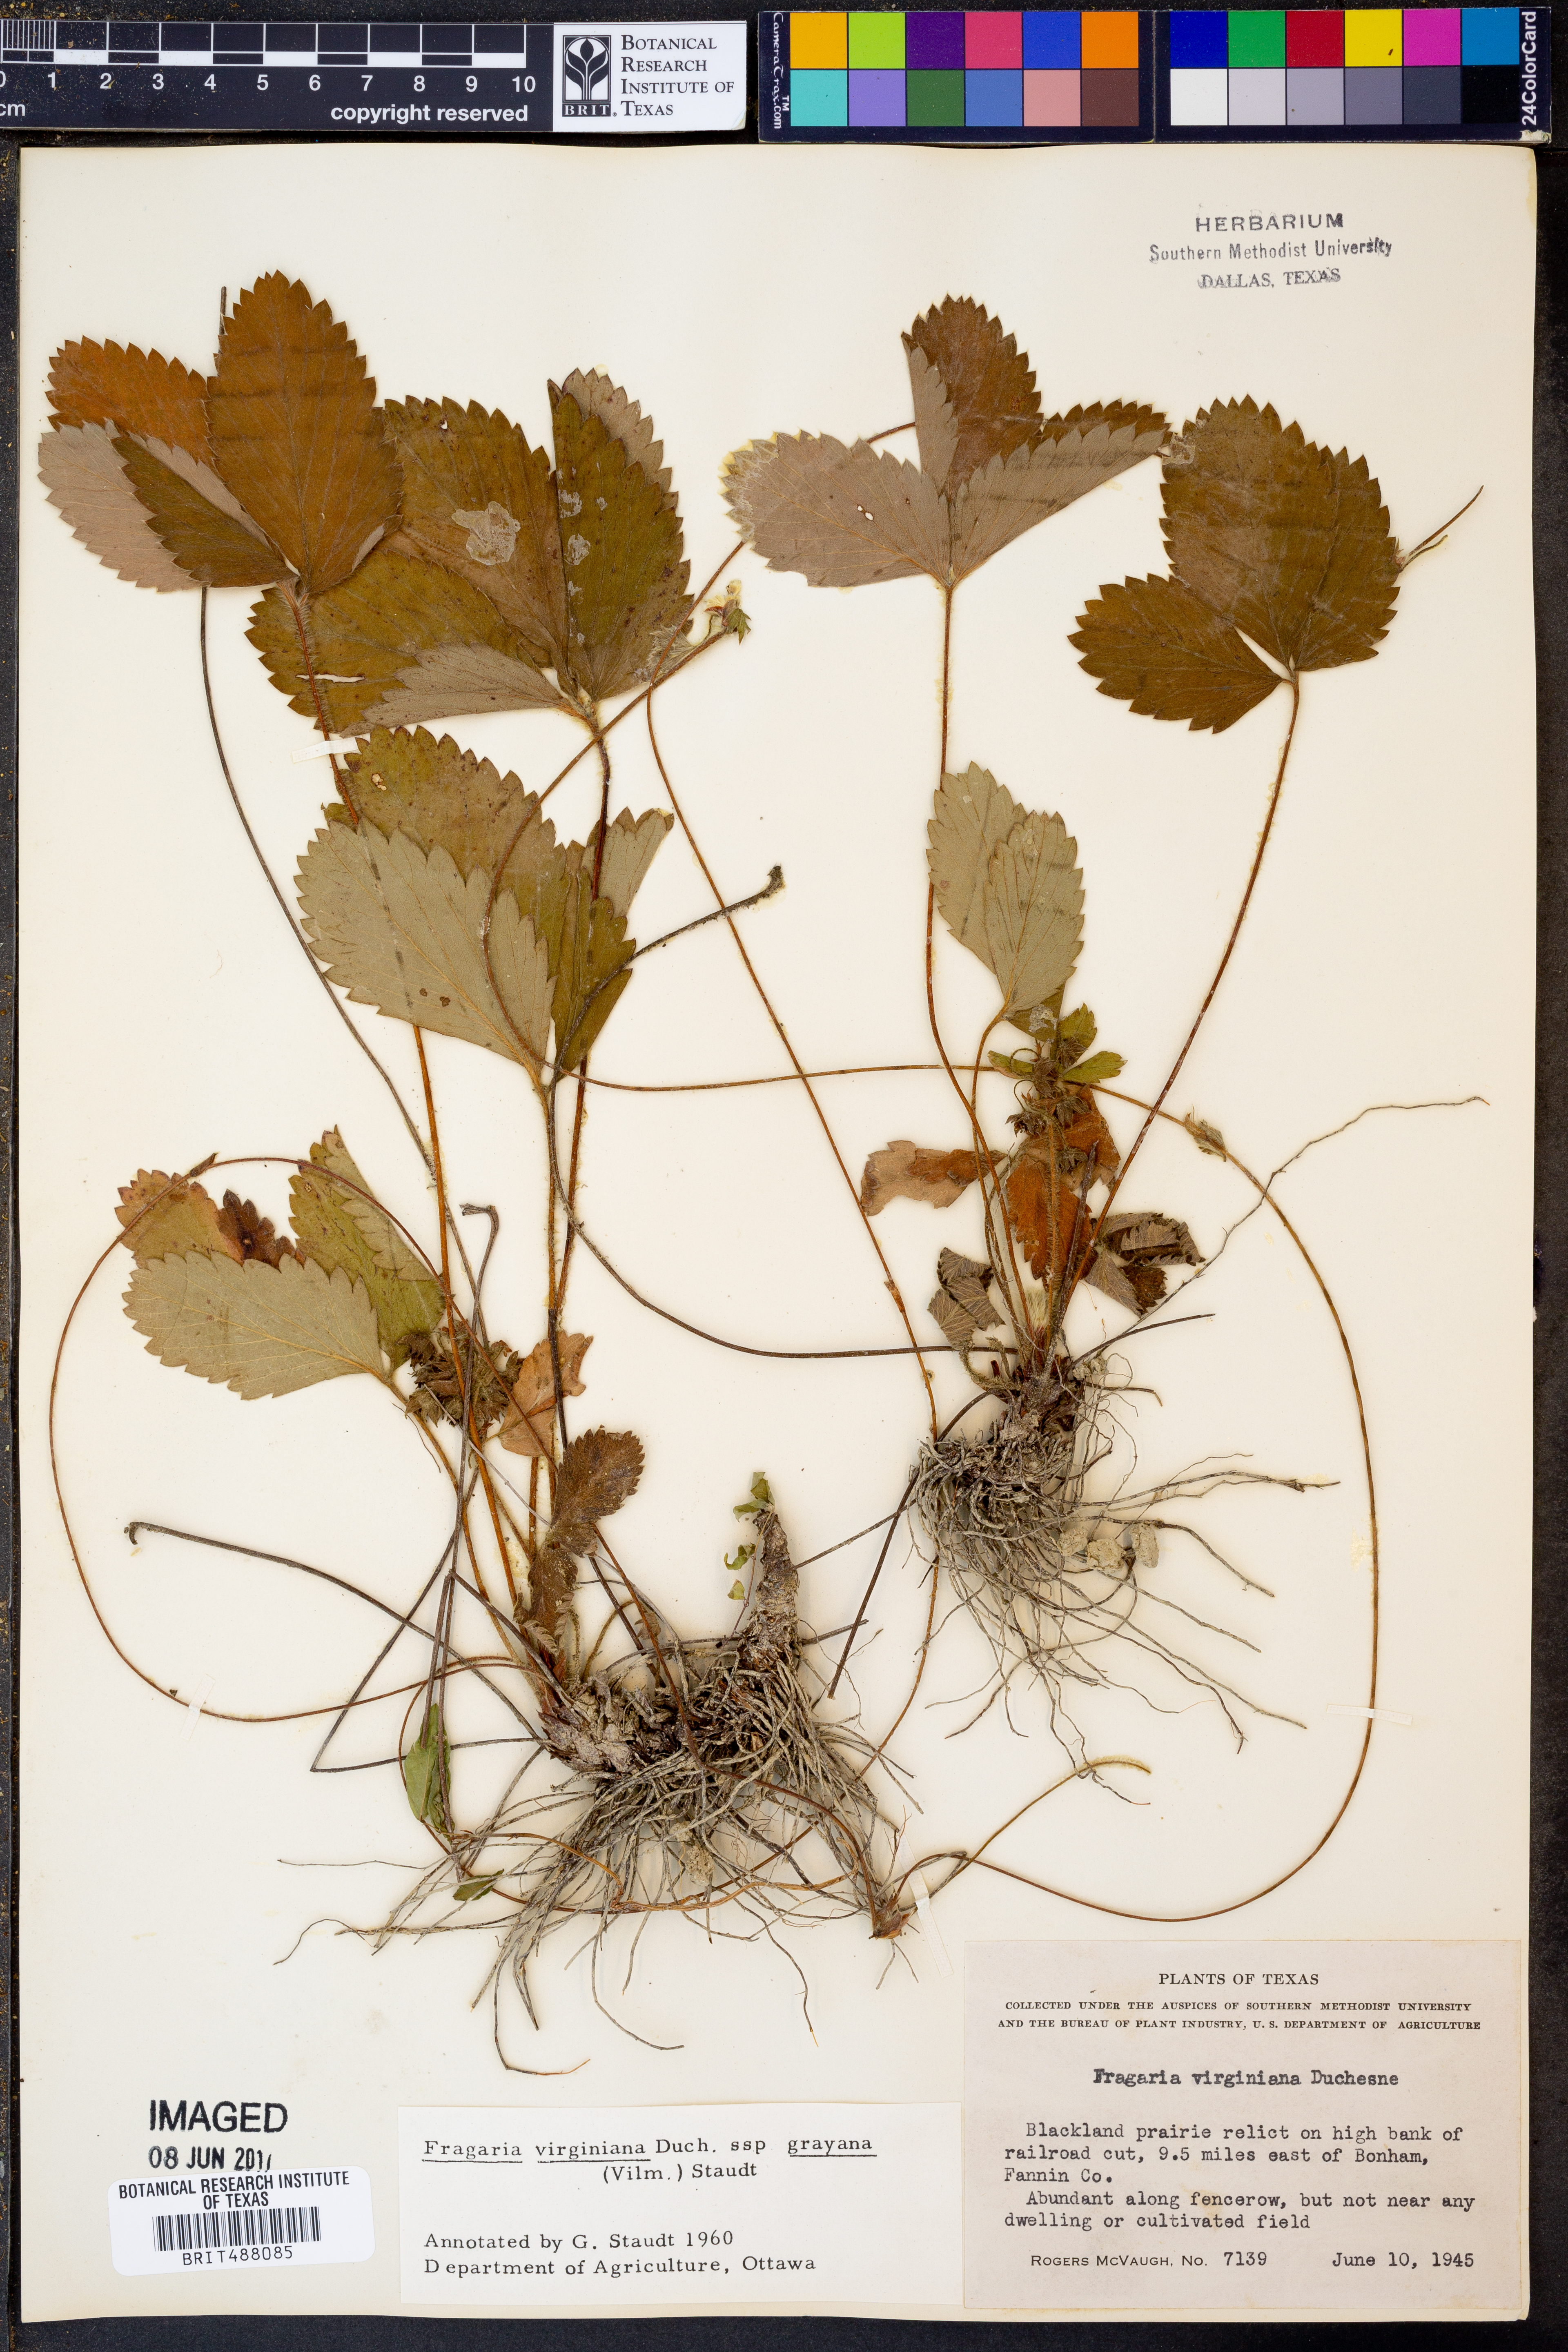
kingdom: Plantae
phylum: Tracheophyta
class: Magnoliopsida
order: Rosales
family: Rosaceae
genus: Fragaria
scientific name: Fragaria virginiana
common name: Thickleaved wild strawberry
